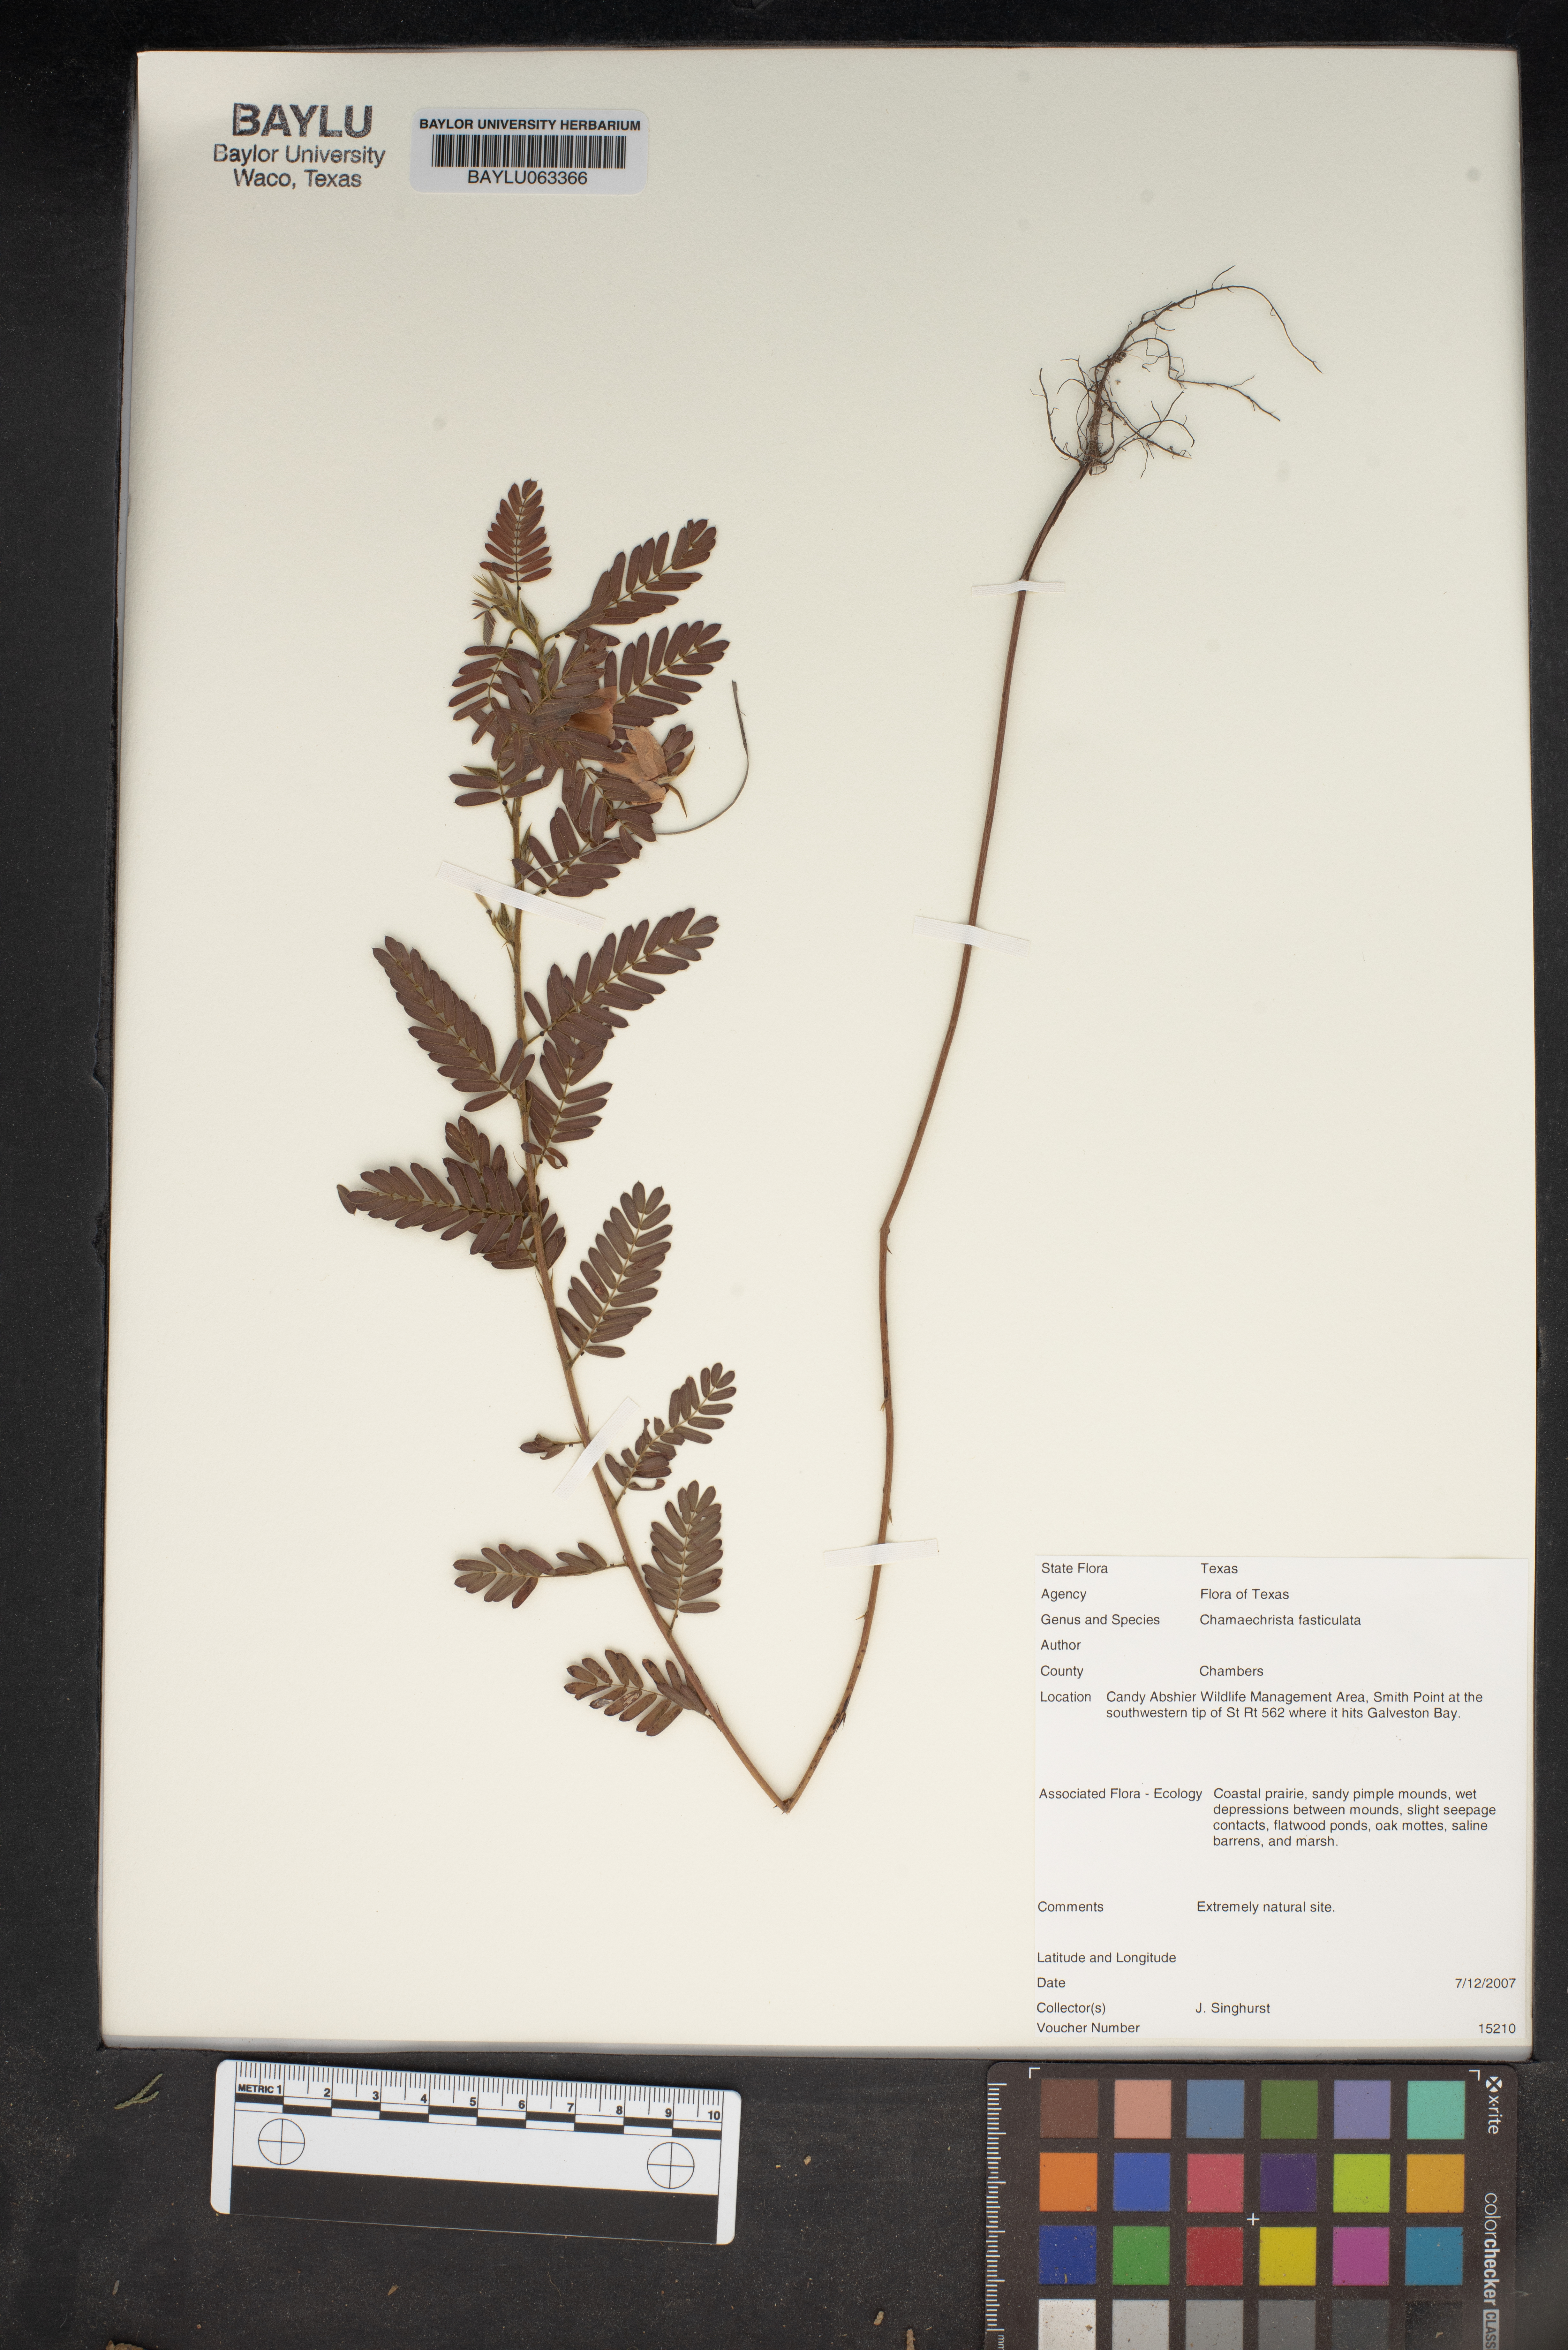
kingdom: Plantae
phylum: Tracheophyta
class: Magnoliopsida
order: Fabales
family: Fabaceae
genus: Chamaecrista
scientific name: Chamaecrista fasciculata
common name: Golden cassia
